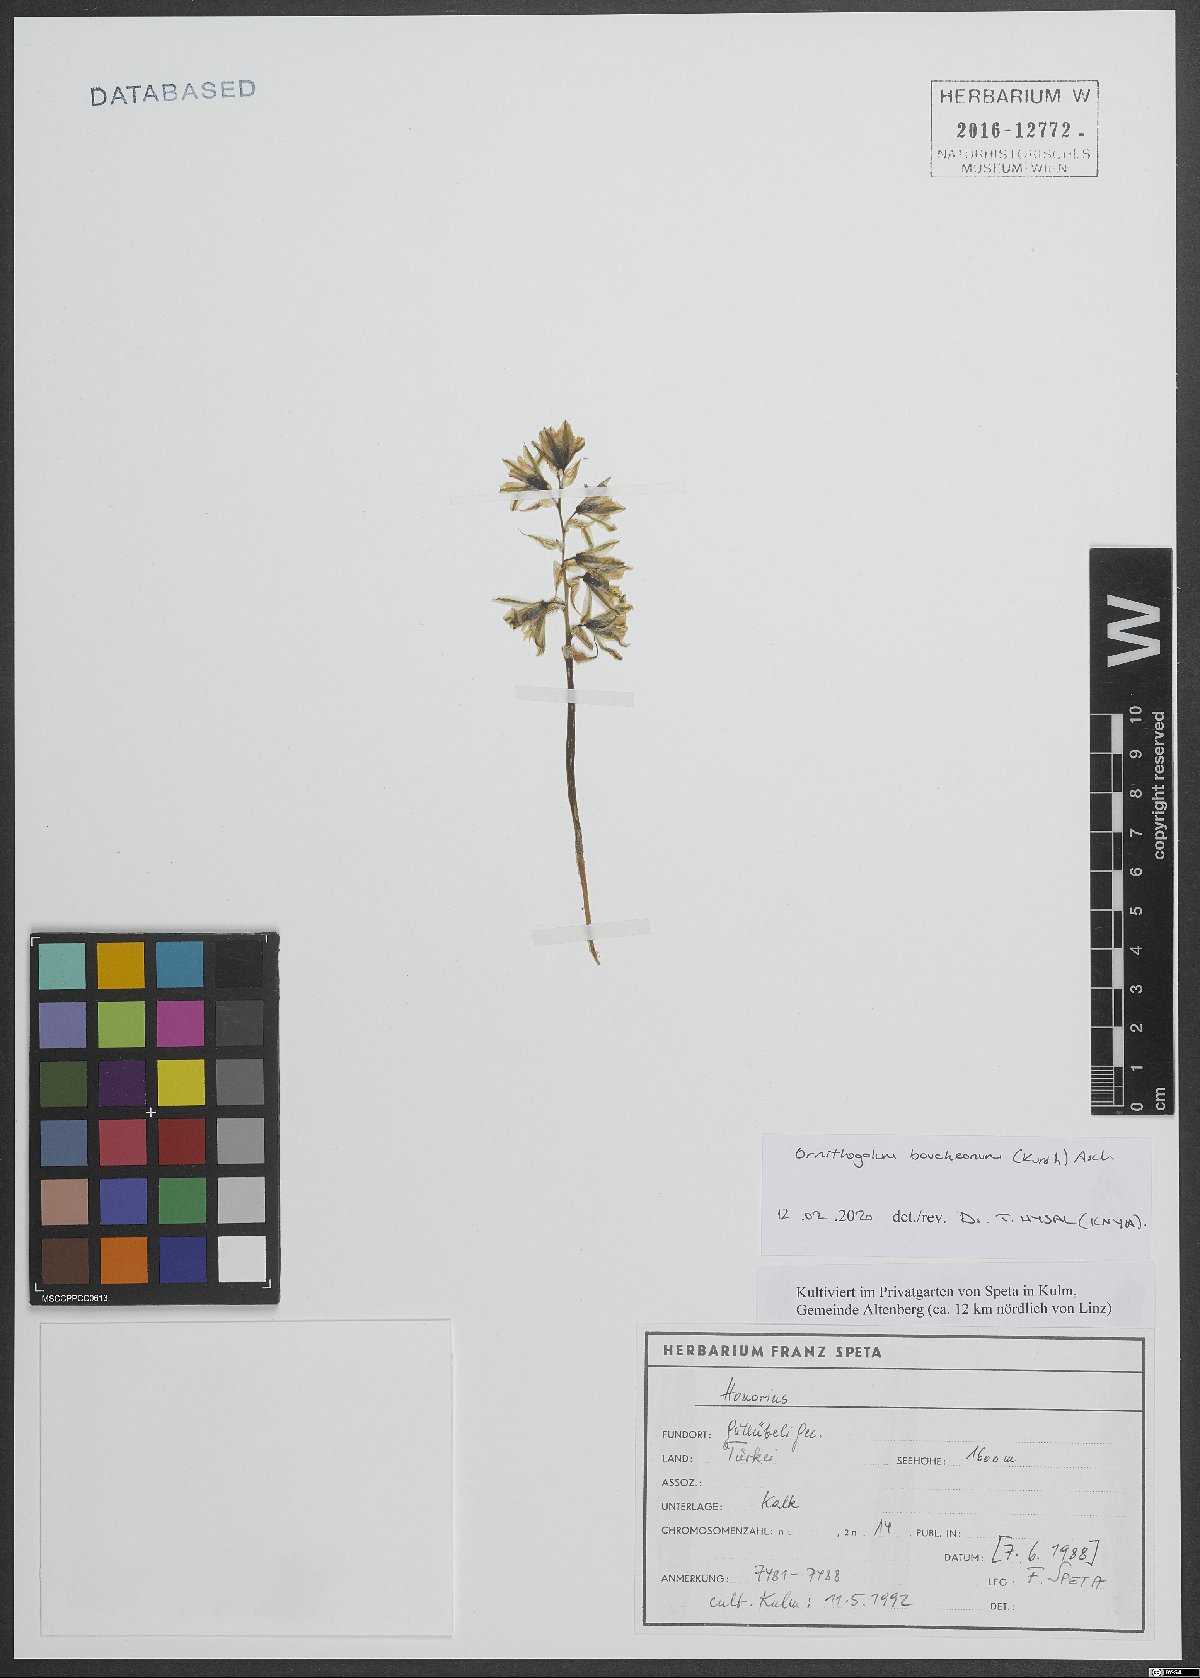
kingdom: Plantae
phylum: Tracheophyta
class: Liliopsida
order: Asparagales
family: Asparagaceae
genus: Ornithogalum
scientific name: Ornithogalum boucheanum
